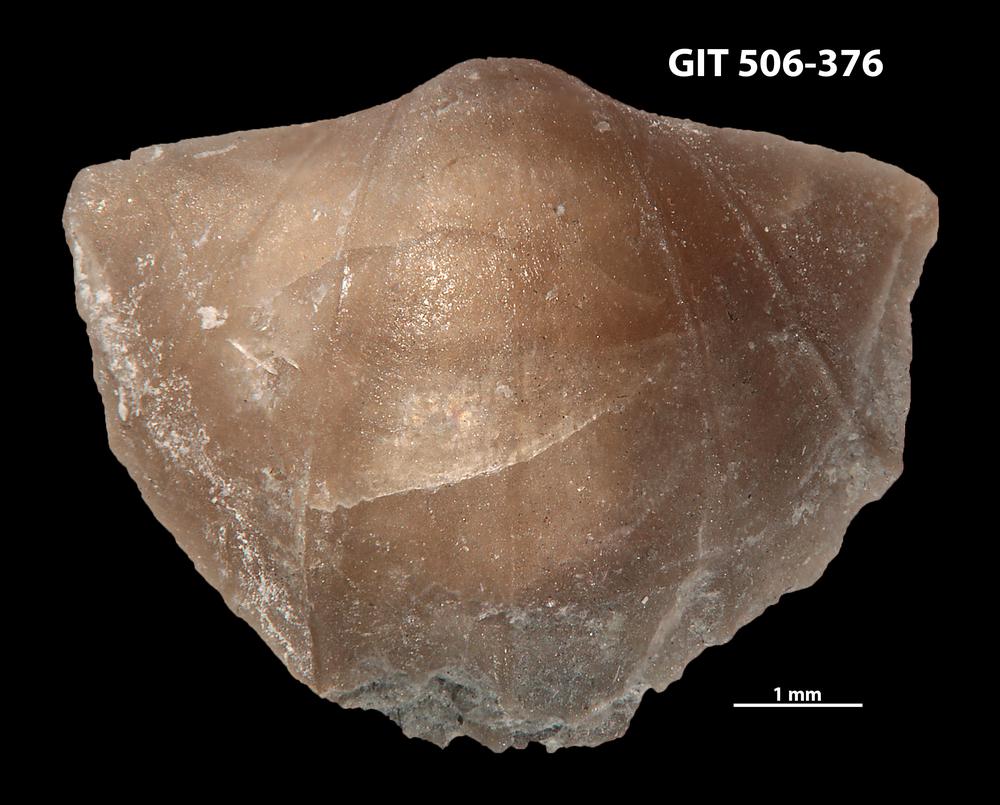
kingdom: Animalia
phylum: Brachiopoda
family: Leptellinidae
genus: Leangella
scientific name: Leangella Plectambonites scissa
